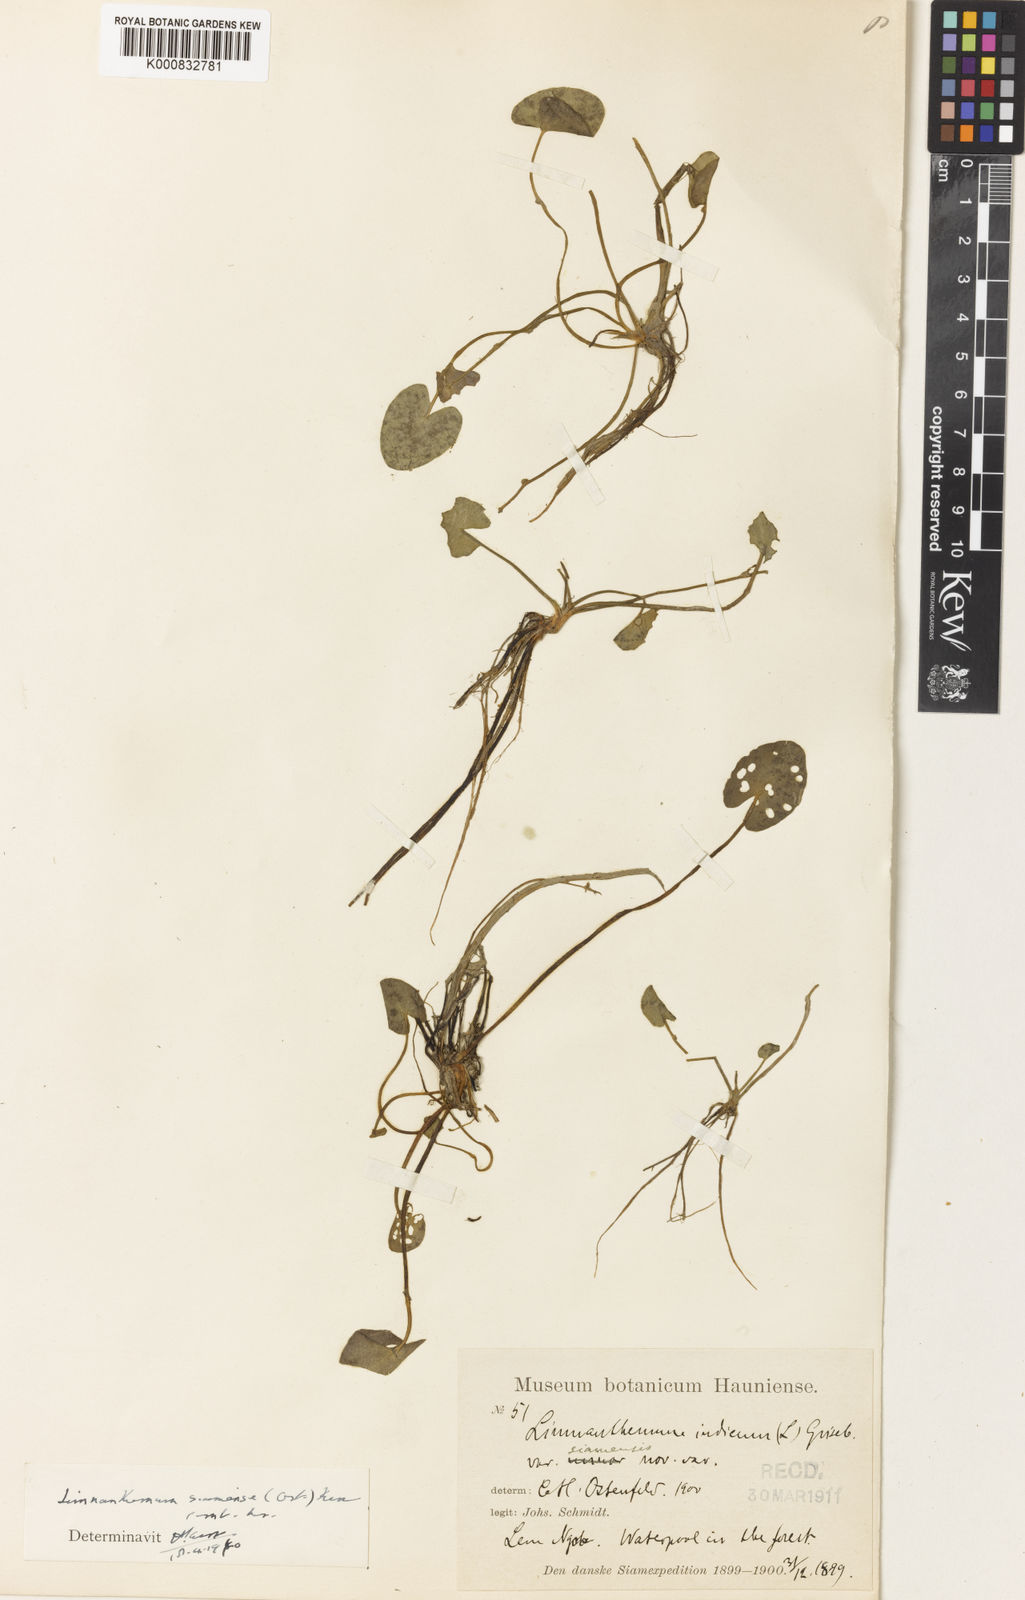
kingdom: Plantae
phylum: Tracheophyta
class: Magnoliopsida
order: Asterales
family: Menyanthaceae
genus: Nymphoides
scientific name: Nymphoides siamensis
